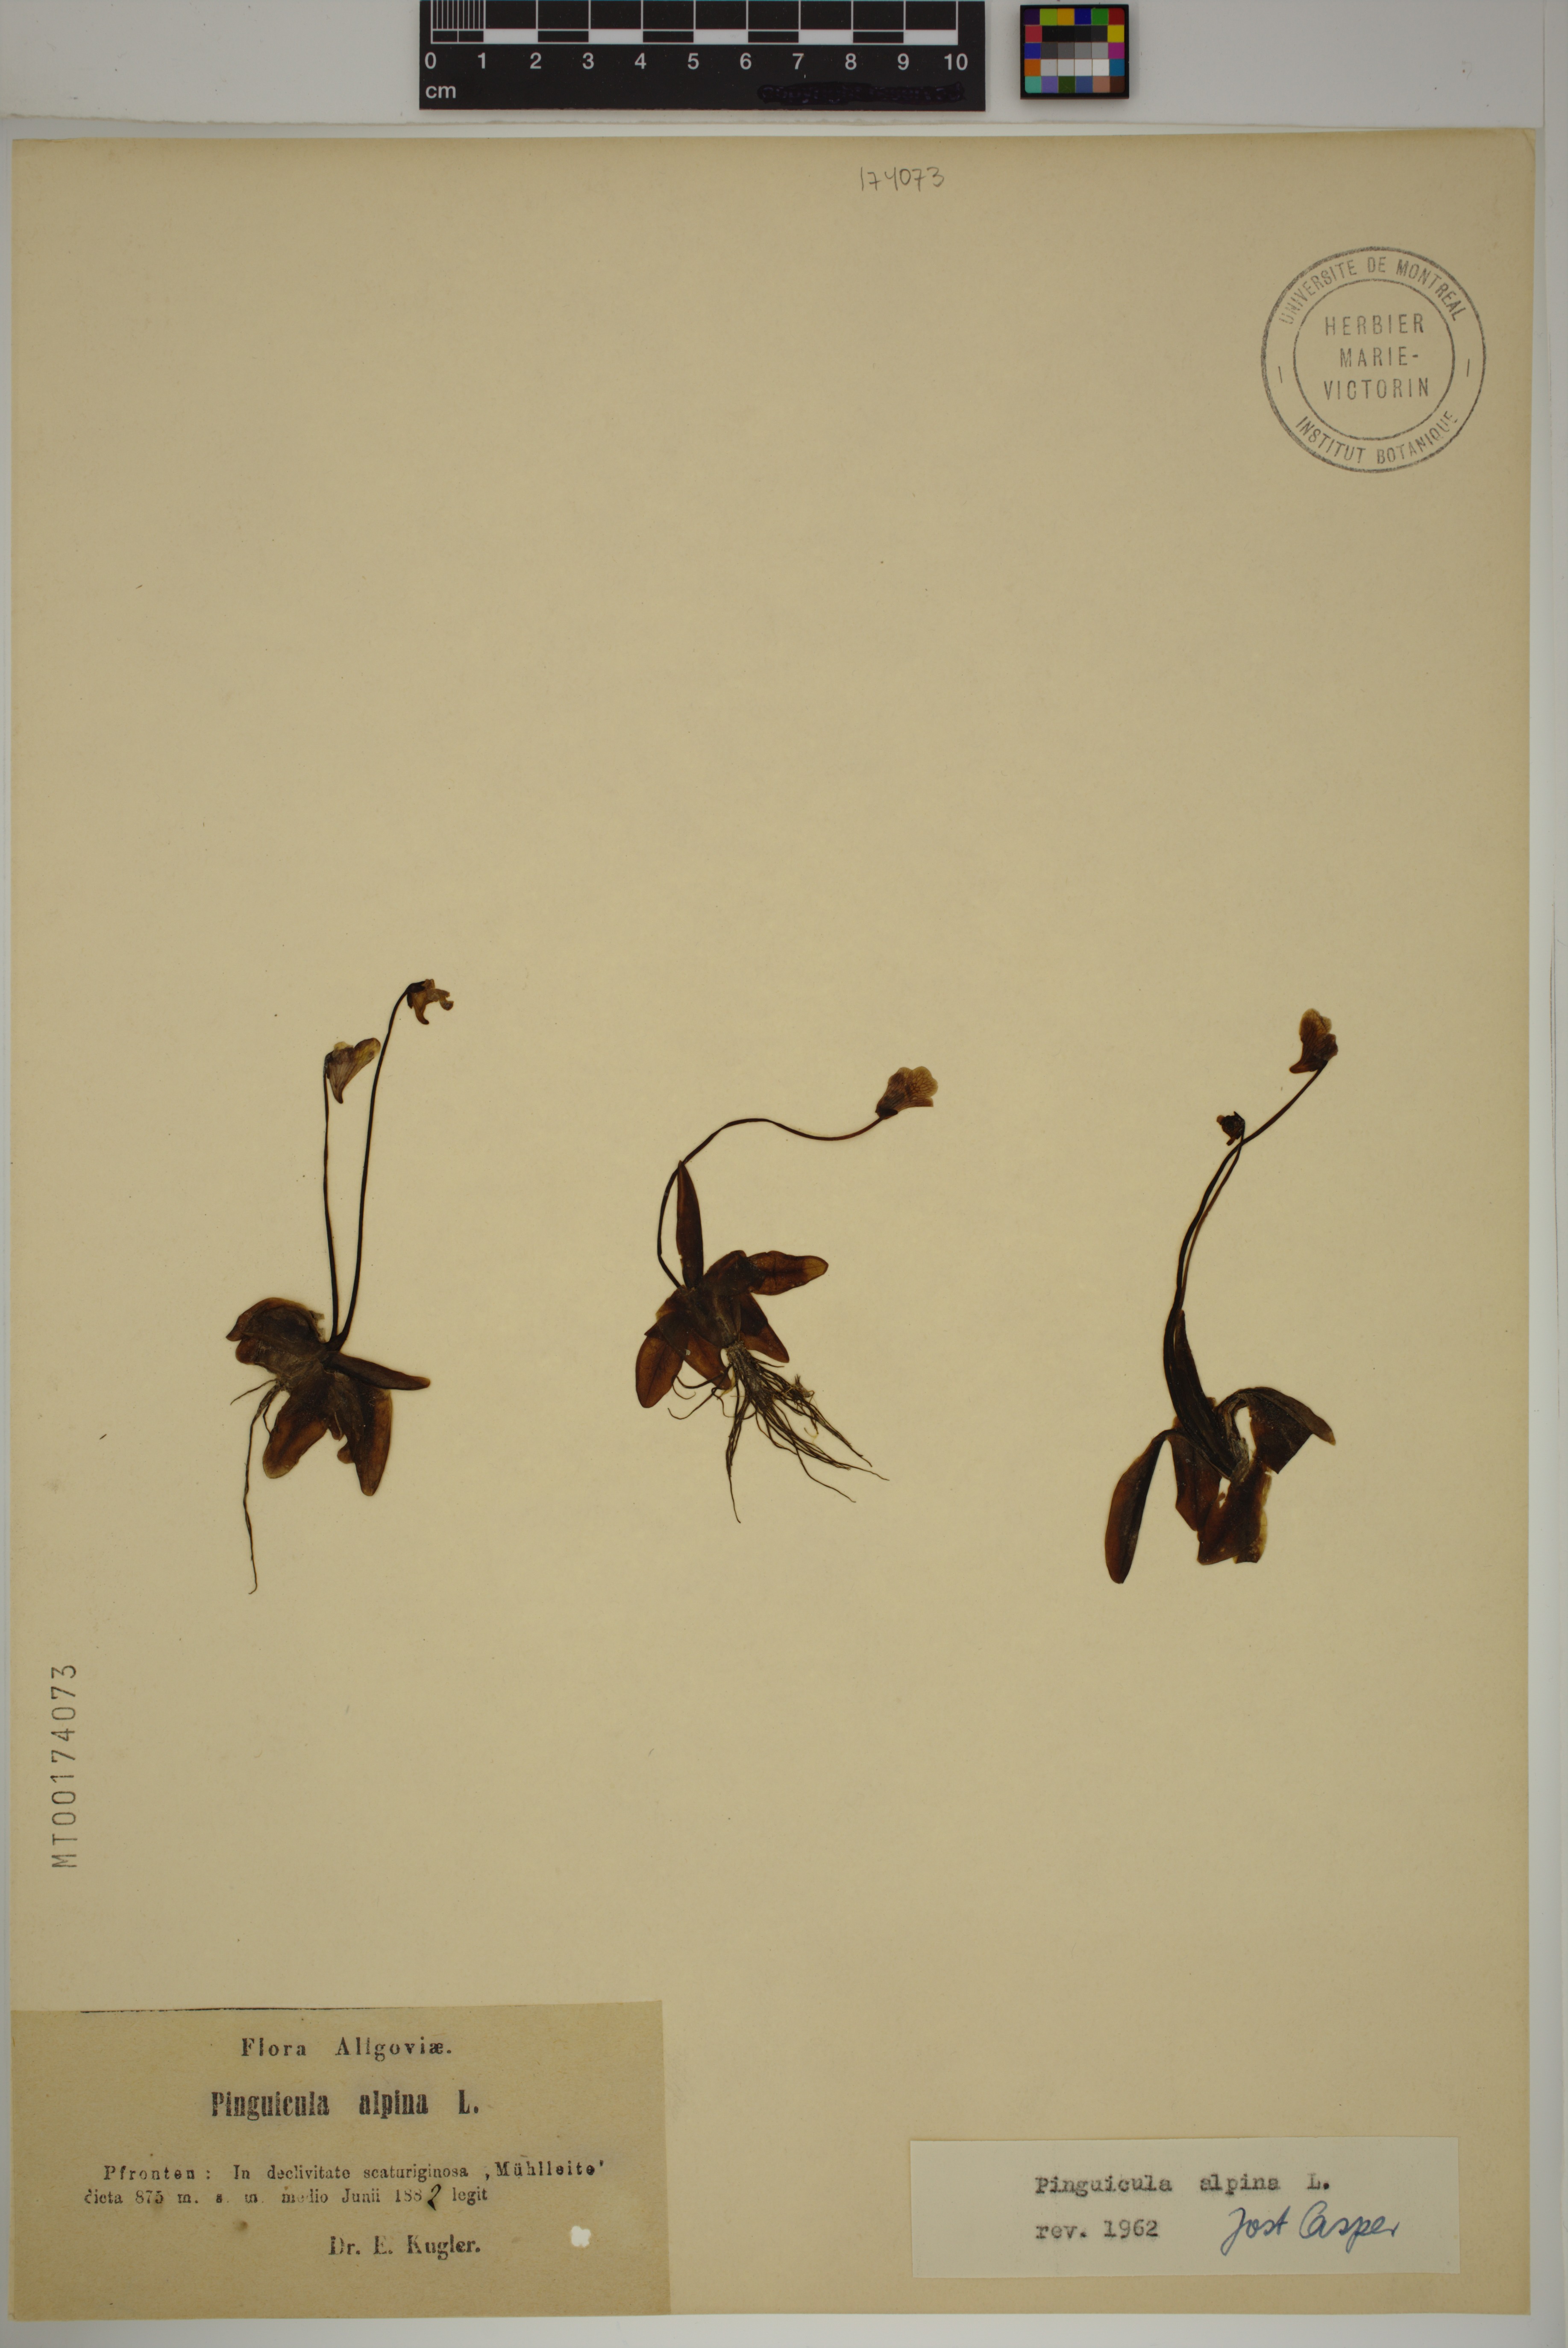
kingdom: Plantae
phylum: Tracheophyta
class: Magnoliopsida
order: Lamiales
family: Lentibulariaceae
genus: Pinguicula
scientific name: Pinguicula alpina
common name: Alpine butterwort
